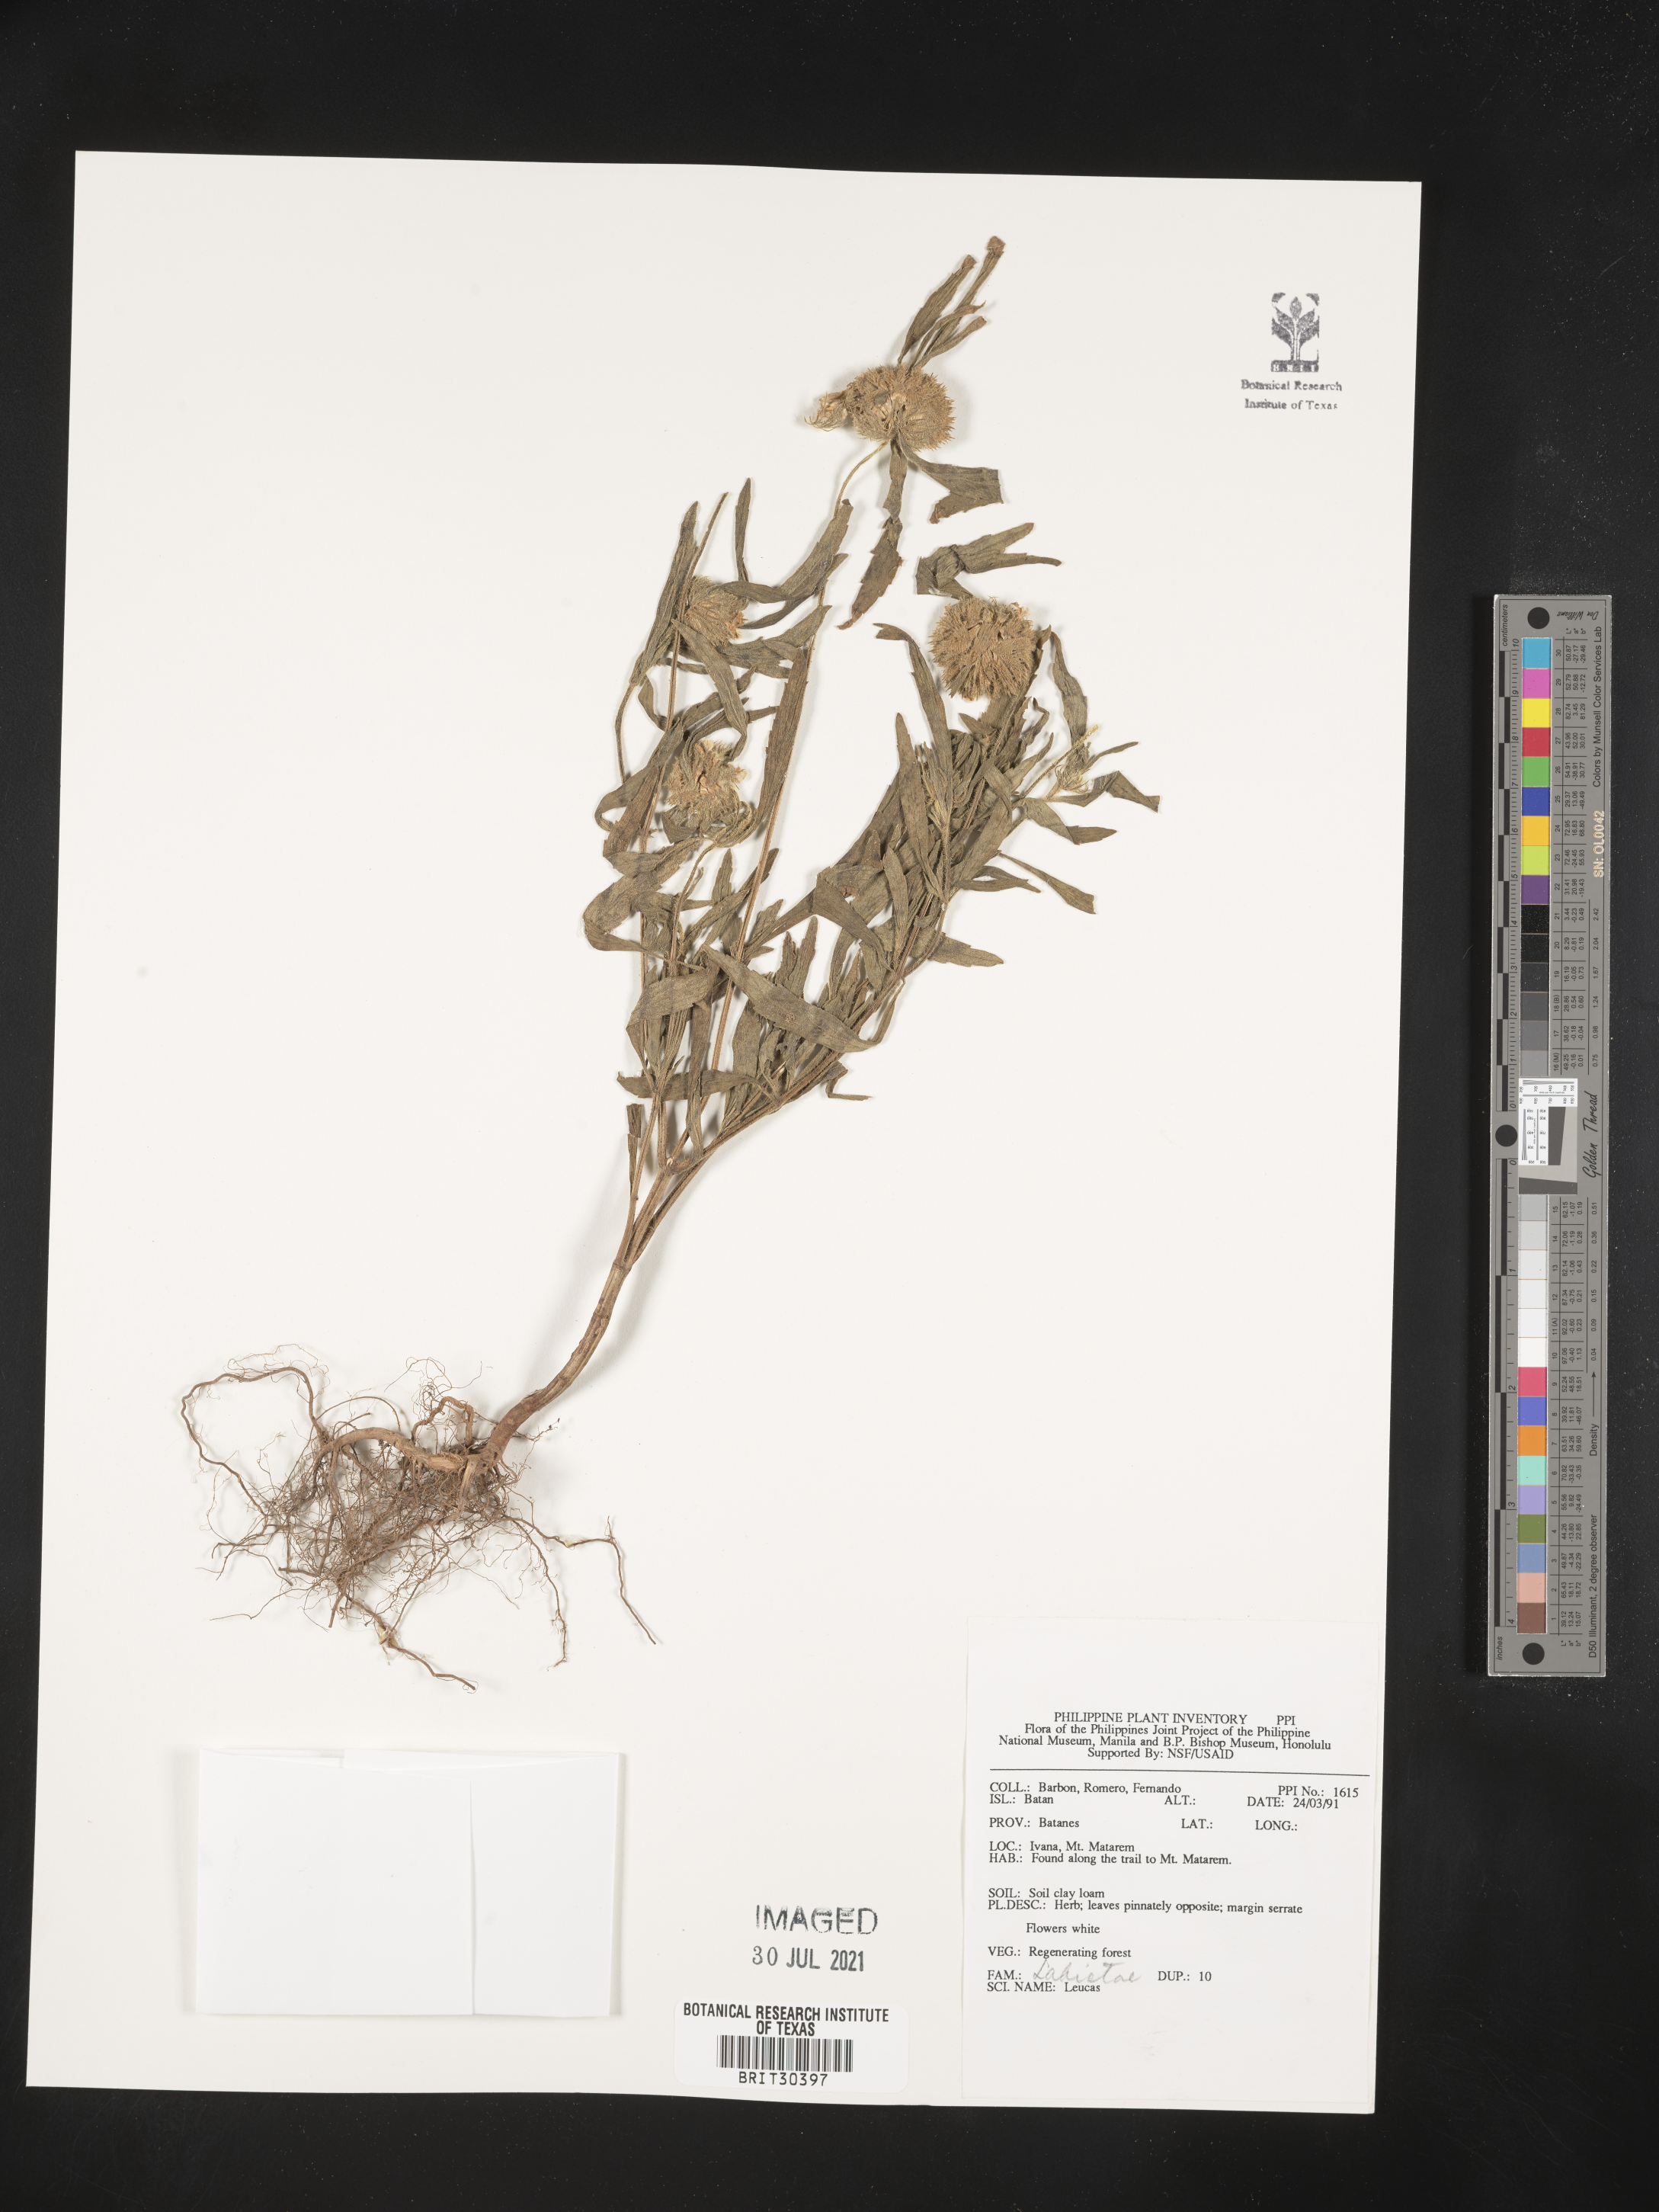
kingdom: Plantae
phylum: Tracheophyta
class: Magnoliopsida
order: Lamiales
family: Lamiaceae
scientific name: Lamiaceae
